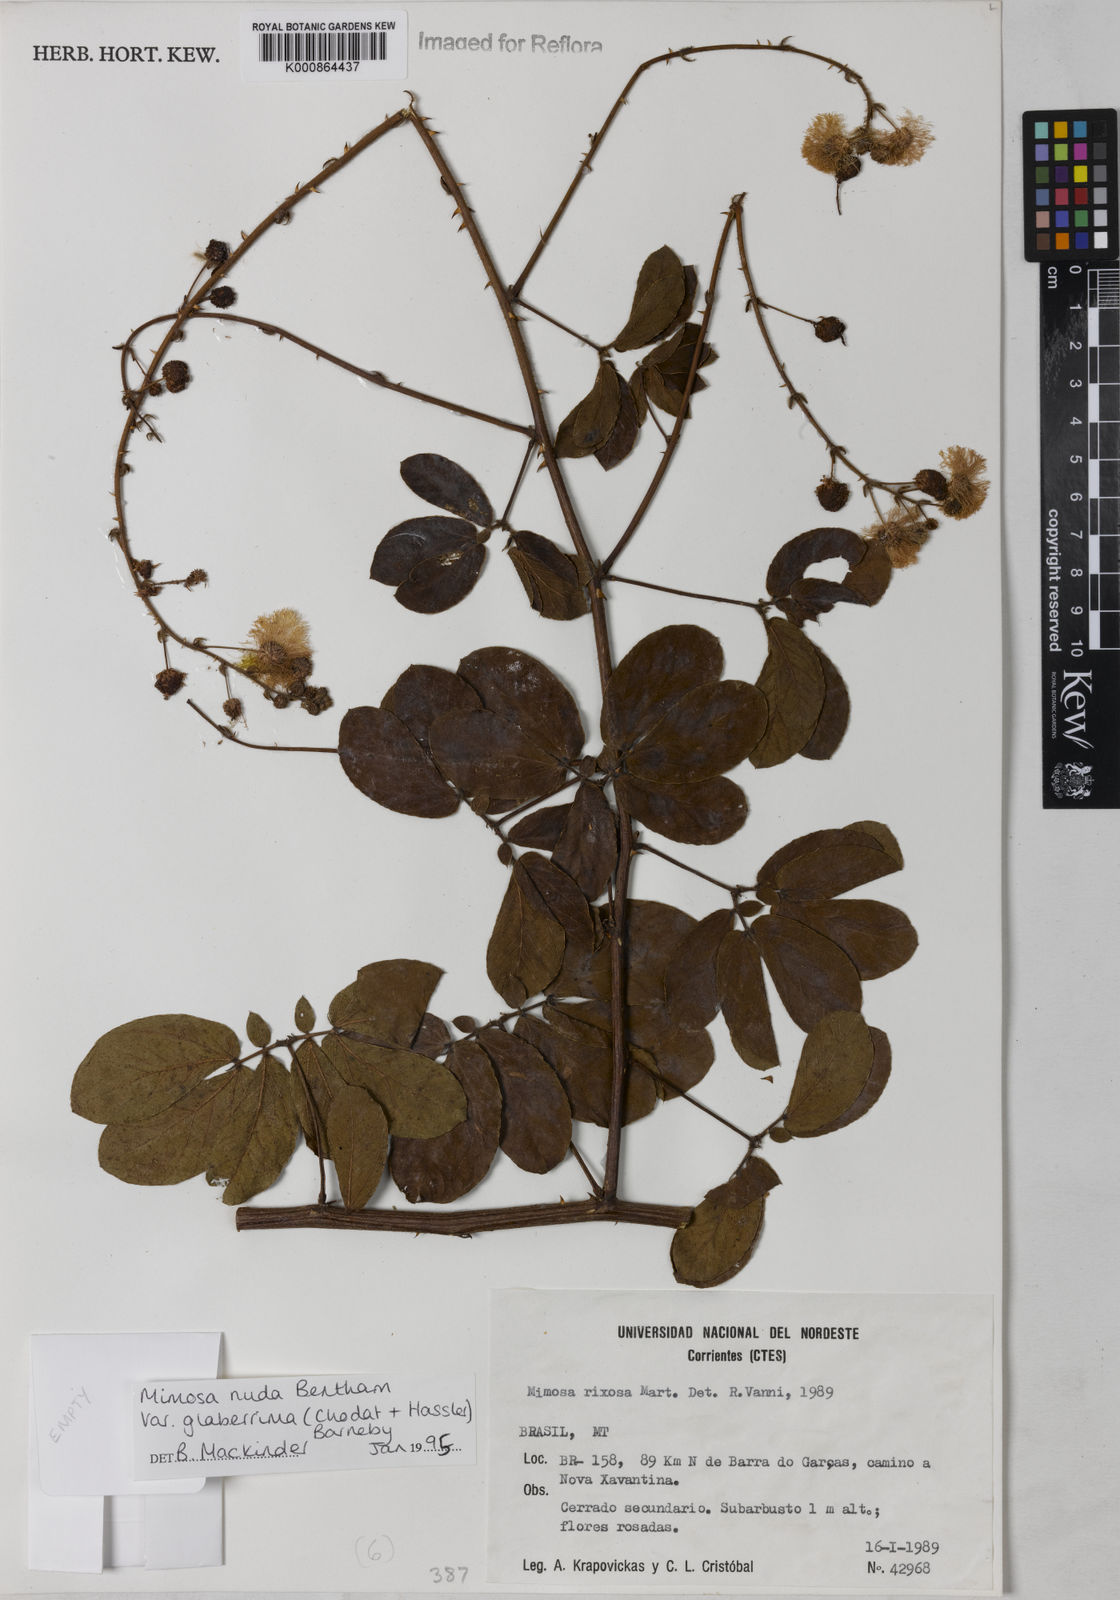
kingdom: Plantae
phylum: Tracheophyta
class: Magnoliopsida
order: Fabales
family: Fabaceae
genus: Mimosa
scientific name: Mimosa debilis
